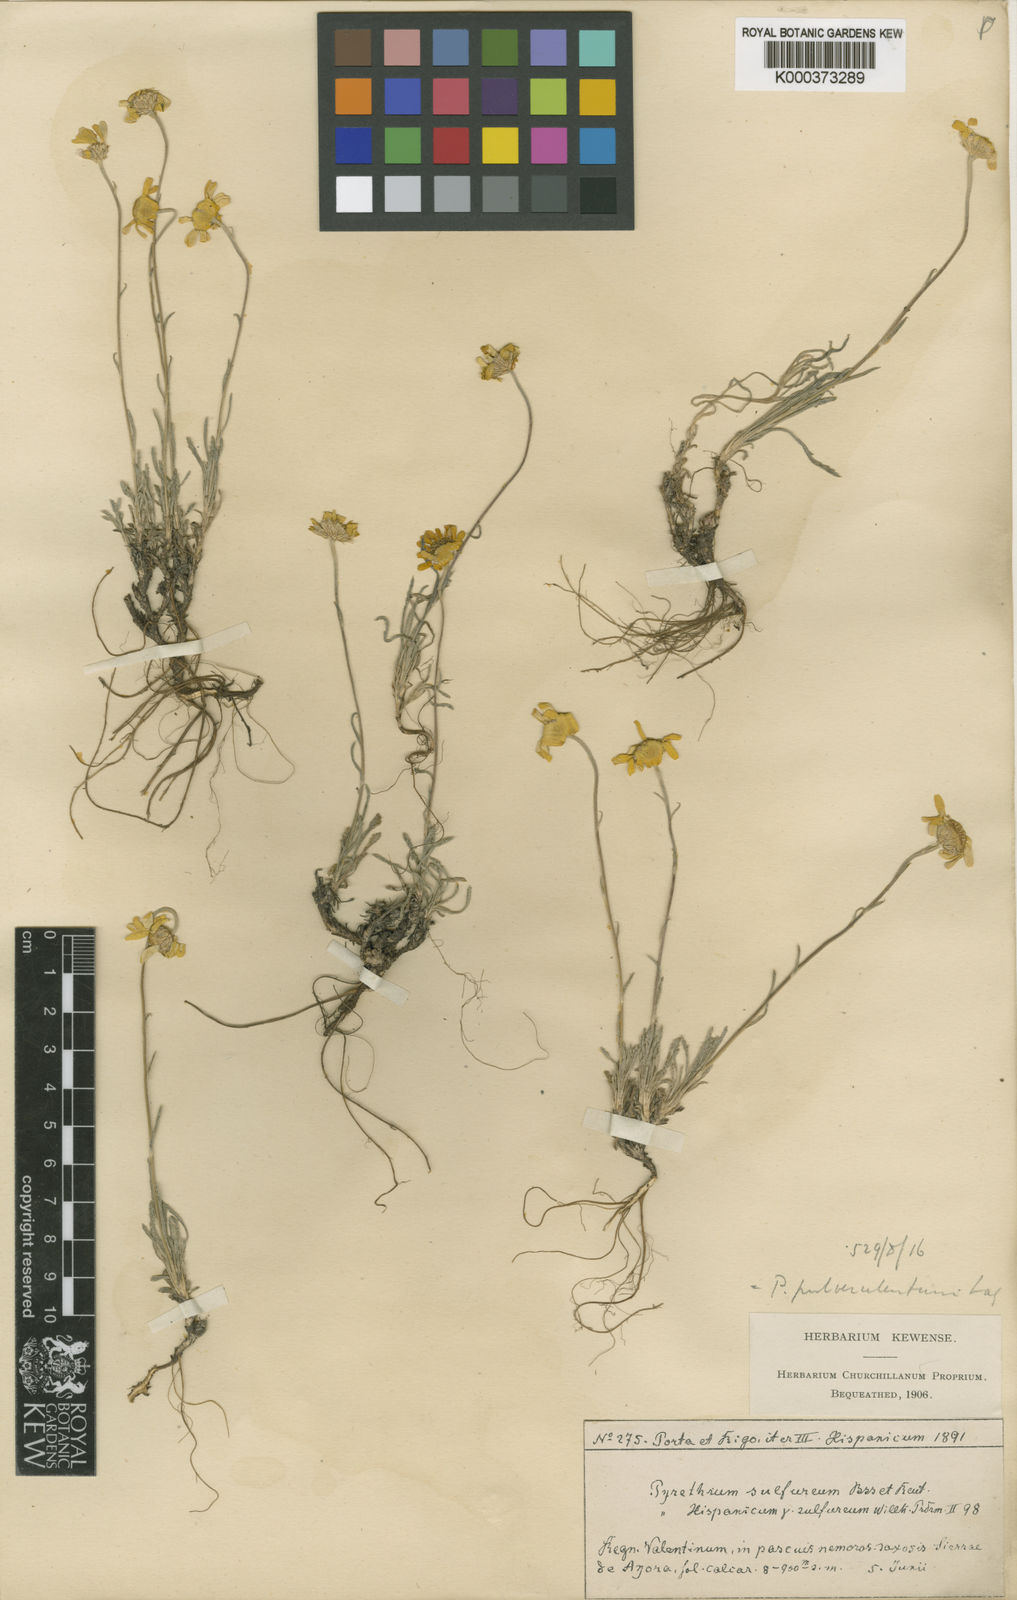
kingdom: Plantae
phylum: Tracheophyta
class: Magnoliopsida
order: Asterales
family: Asteraceae
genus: Leucanthemopsis
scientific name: Leucanthemopsis pallida
